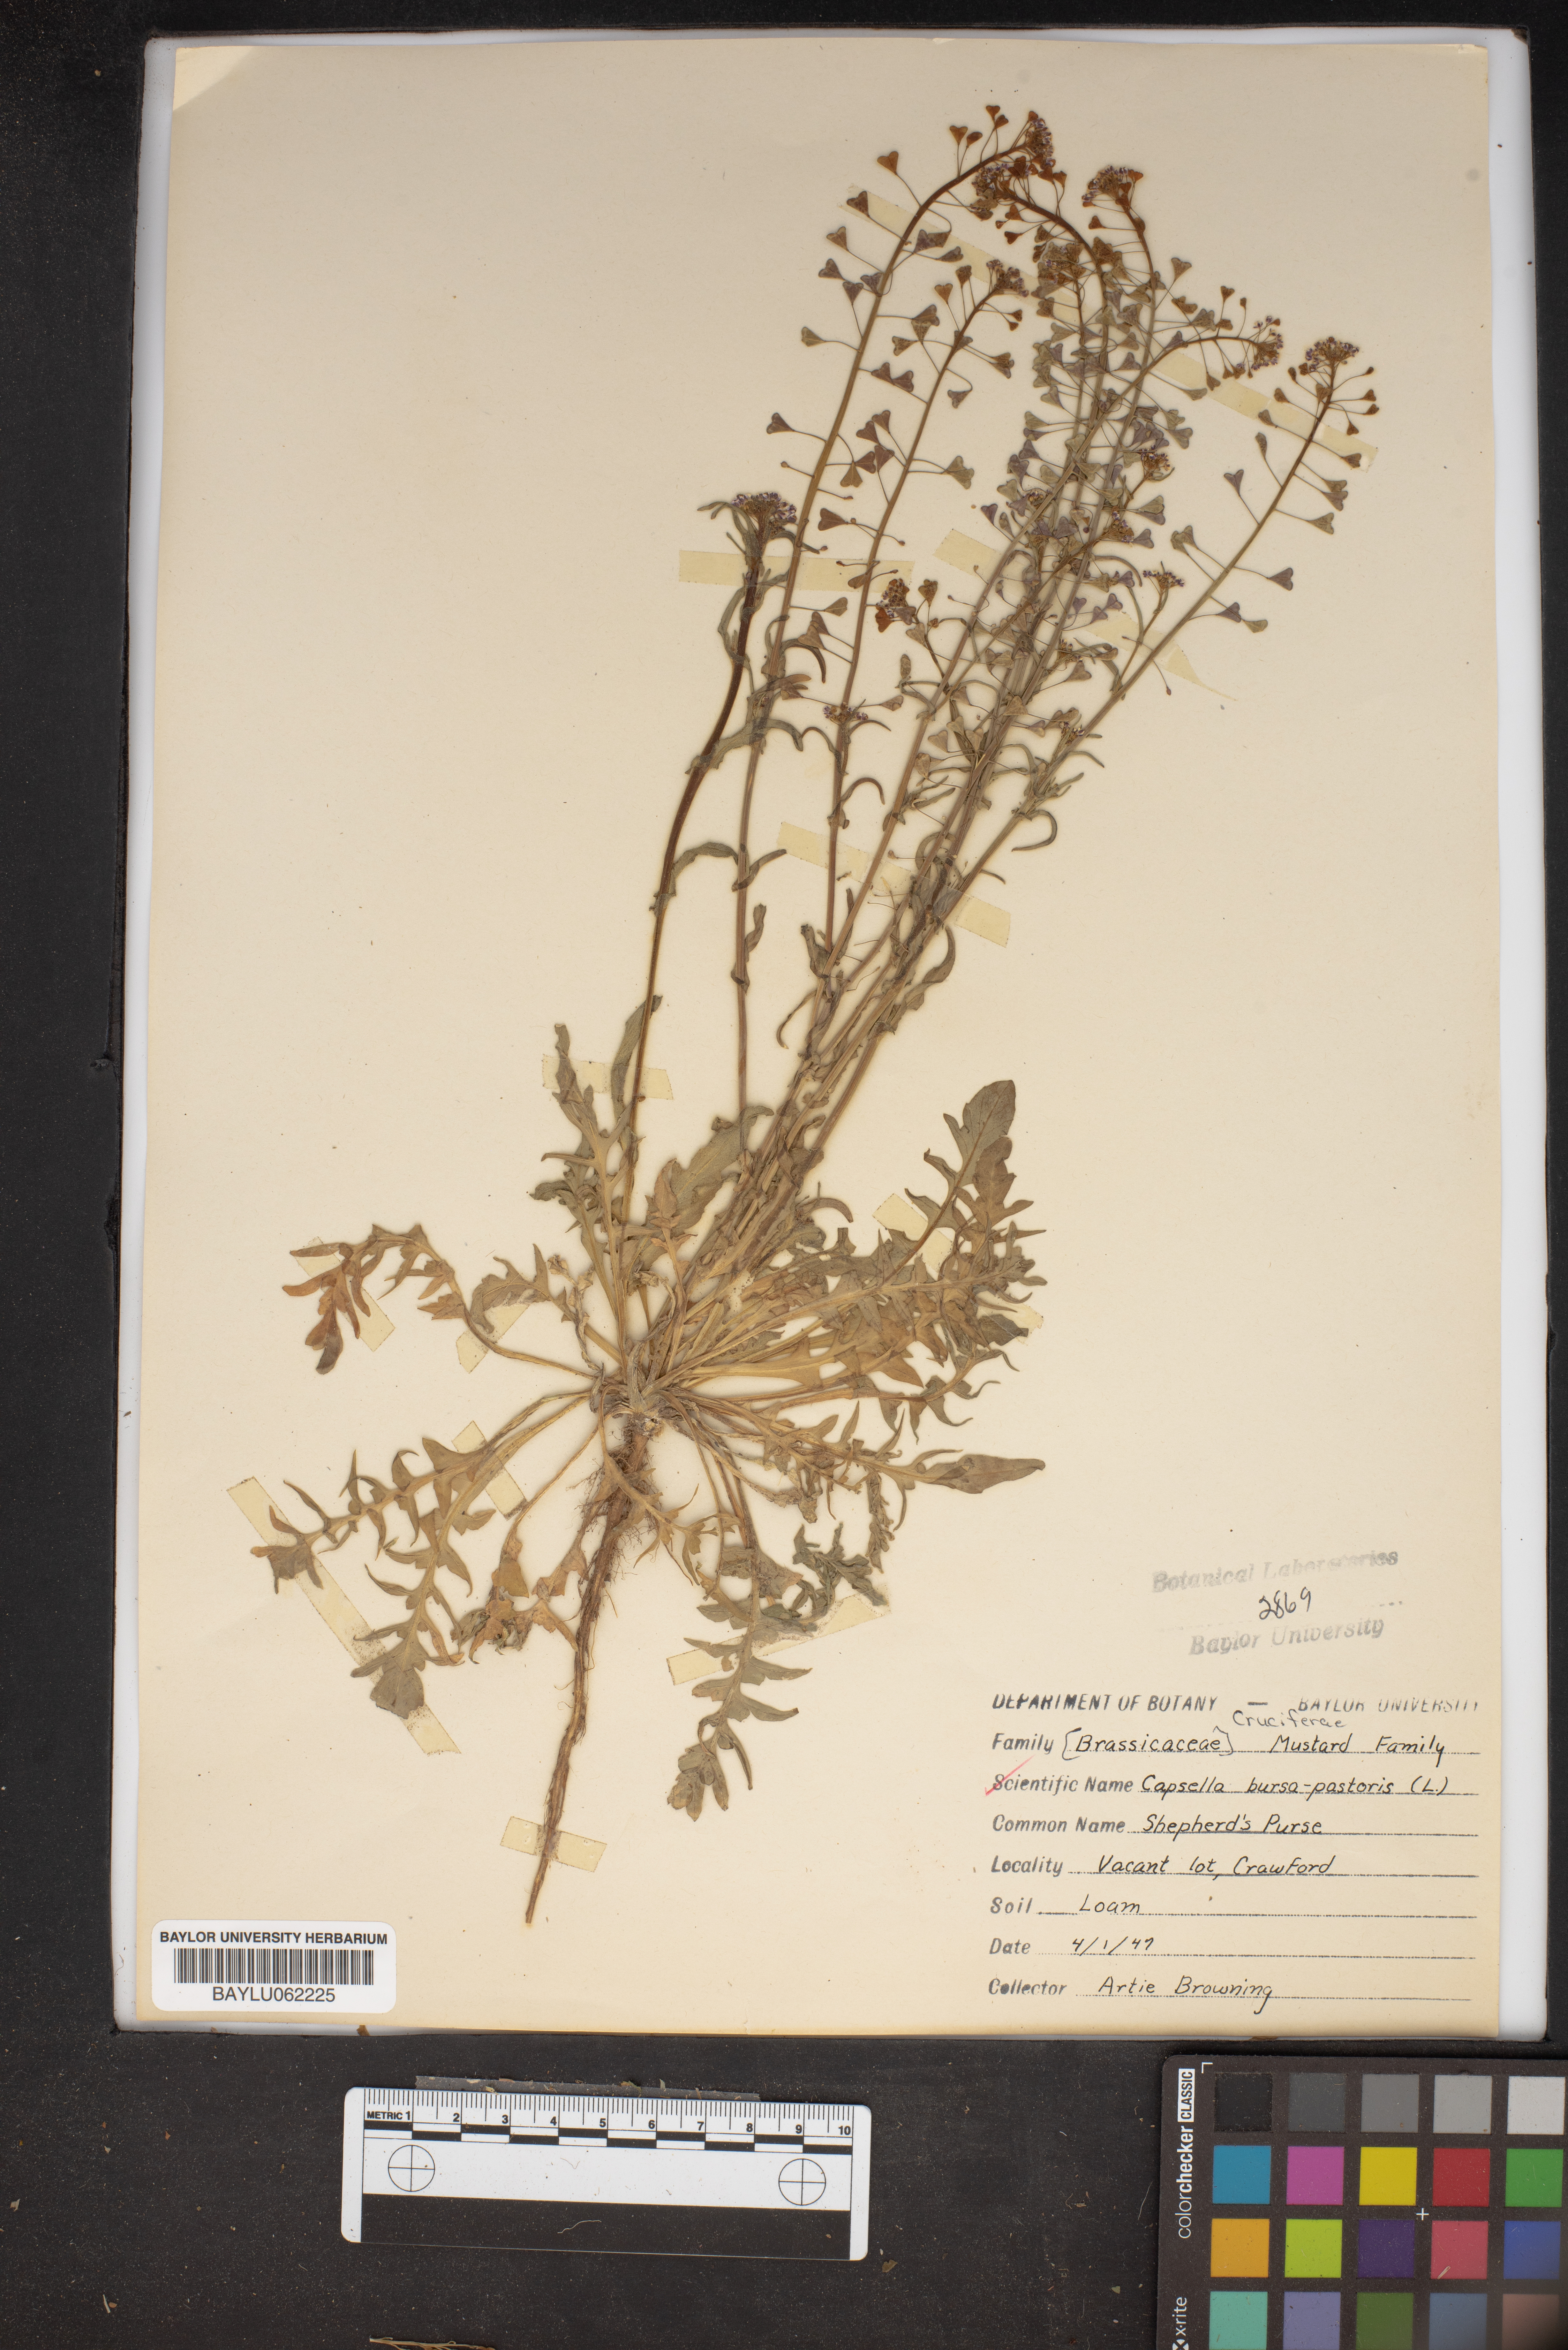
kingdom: Plantae
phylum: Tracheophyta
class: Magnoliopsida
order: Brassicales
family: Brassicaceae
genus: Capsella
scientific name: Capsella bursa-pastoris
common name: Shepherd's purse
